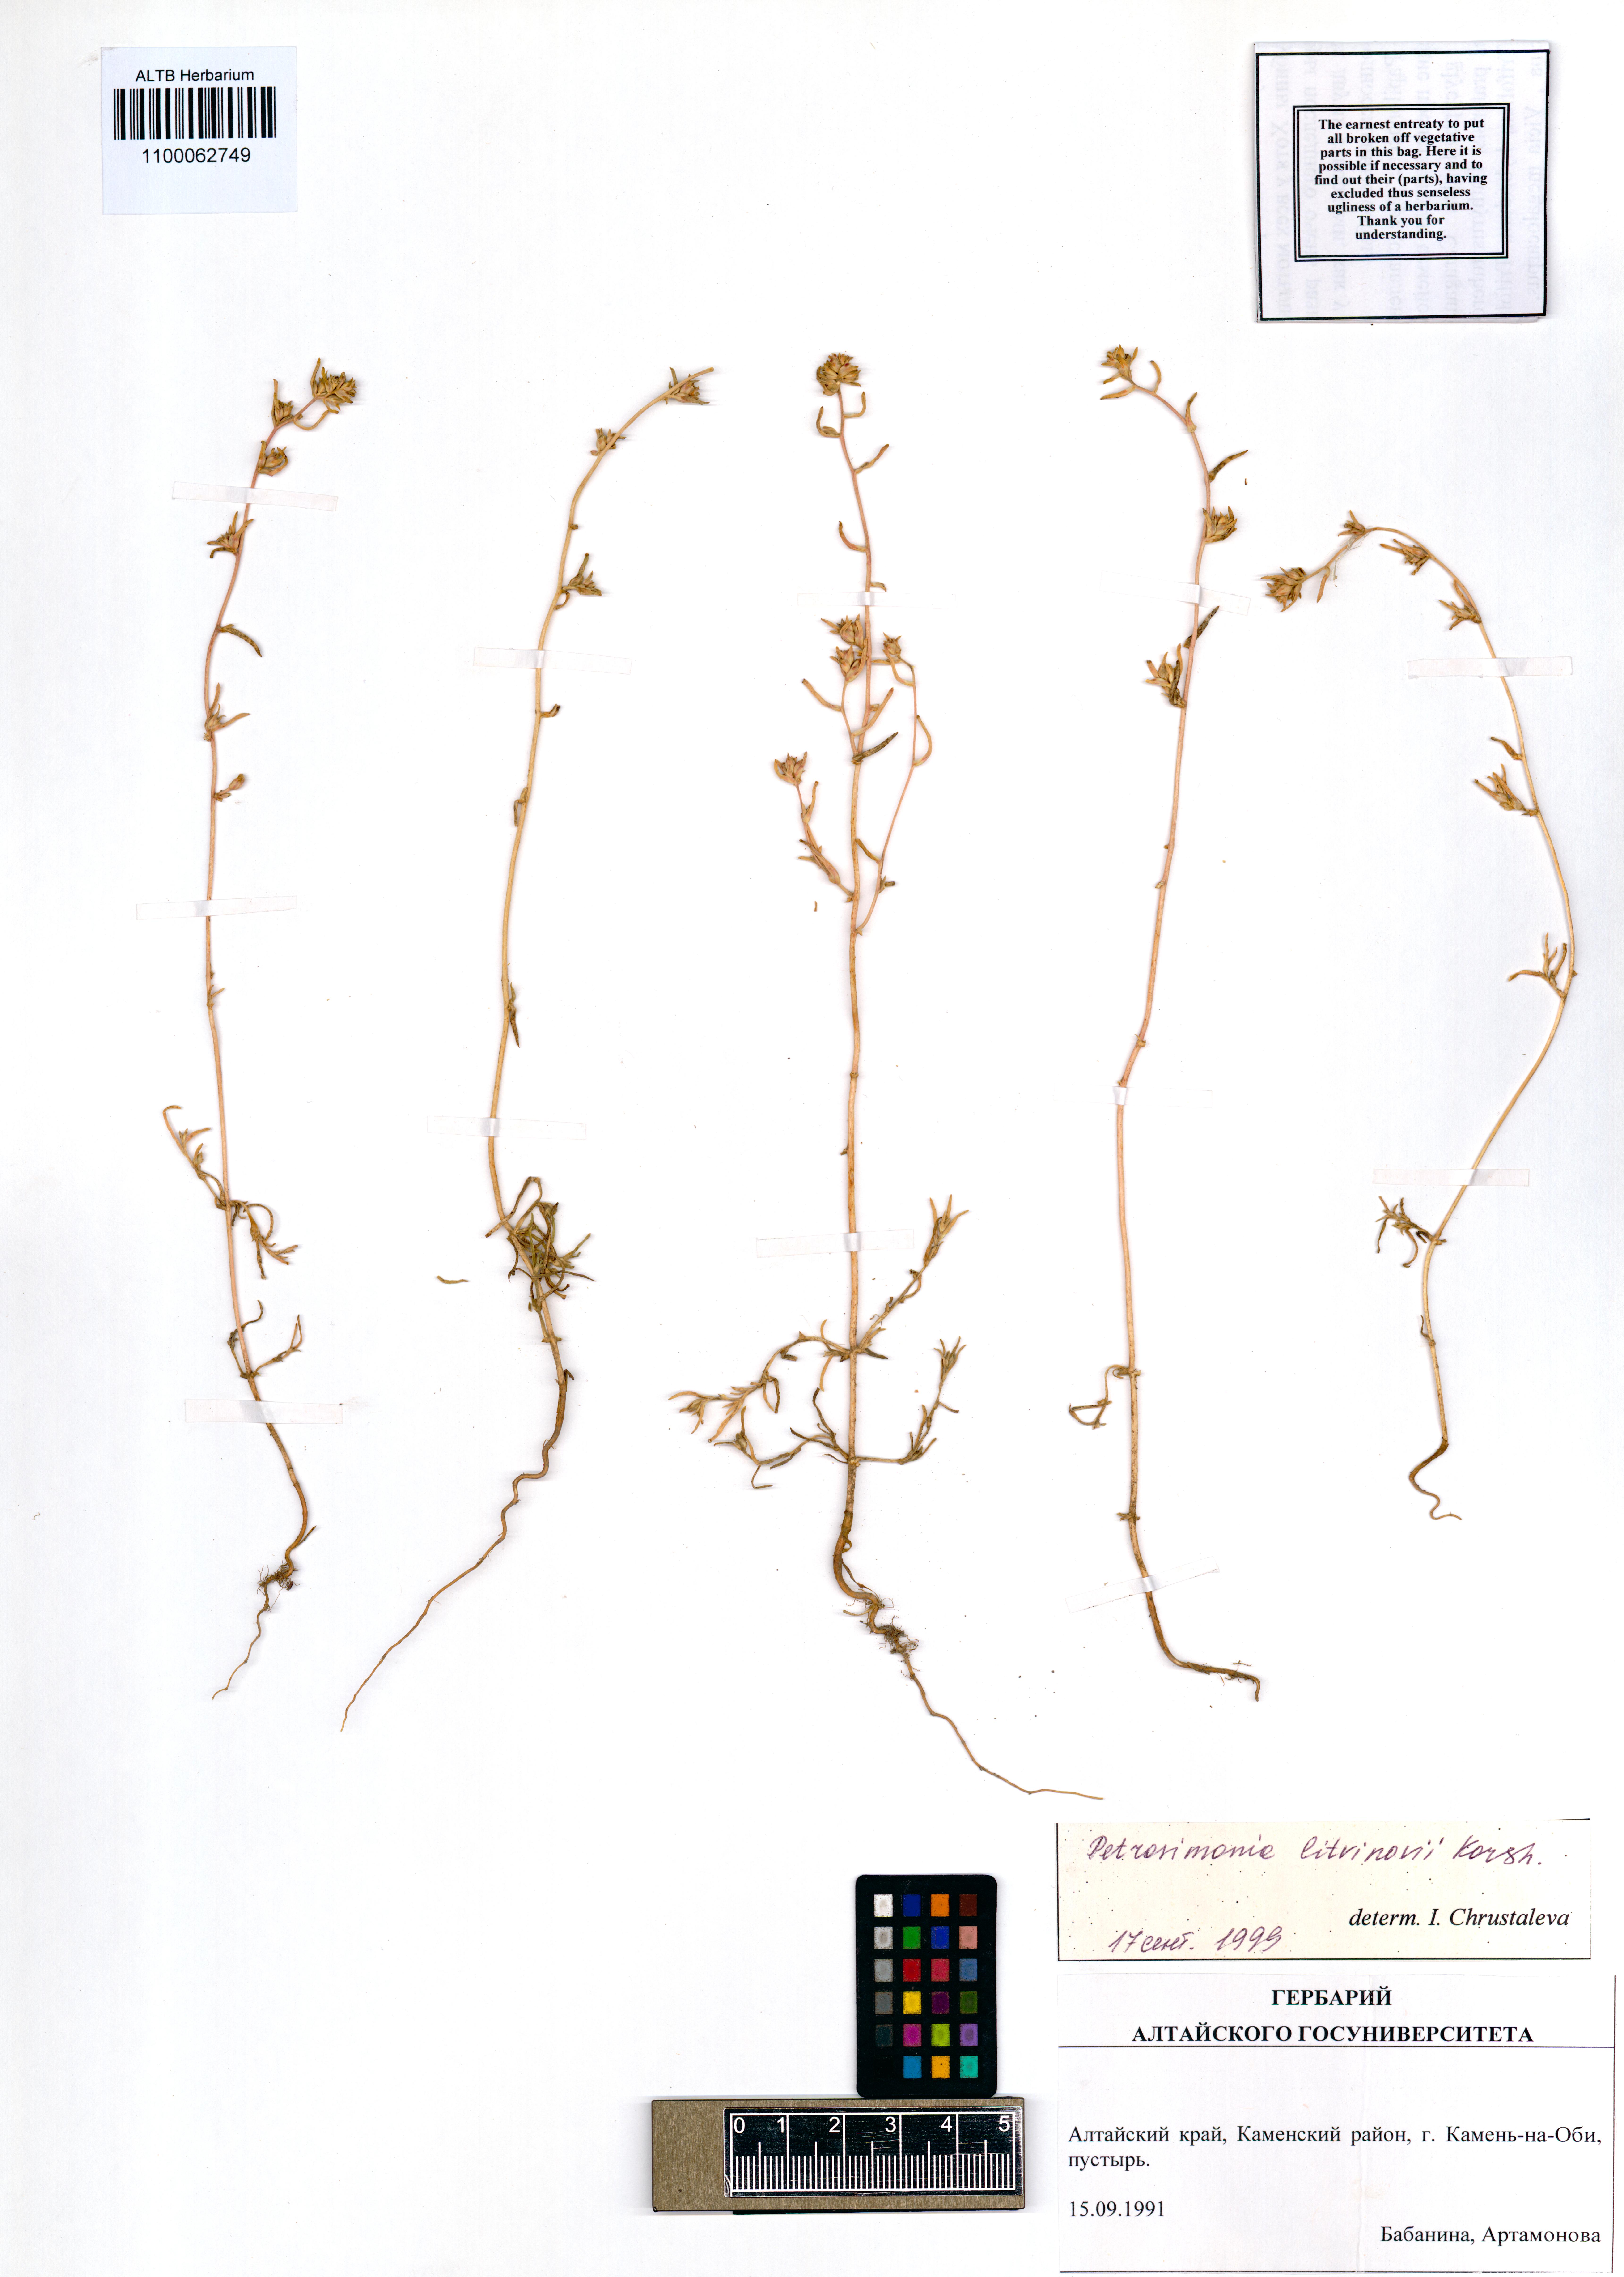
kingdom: Plantae
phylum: Tracheophyta
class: Magnoliopsida
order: Caryophyllales
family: Amaranthaceae
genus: Petrosimonia
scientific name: Petrosimonia litvinowi
